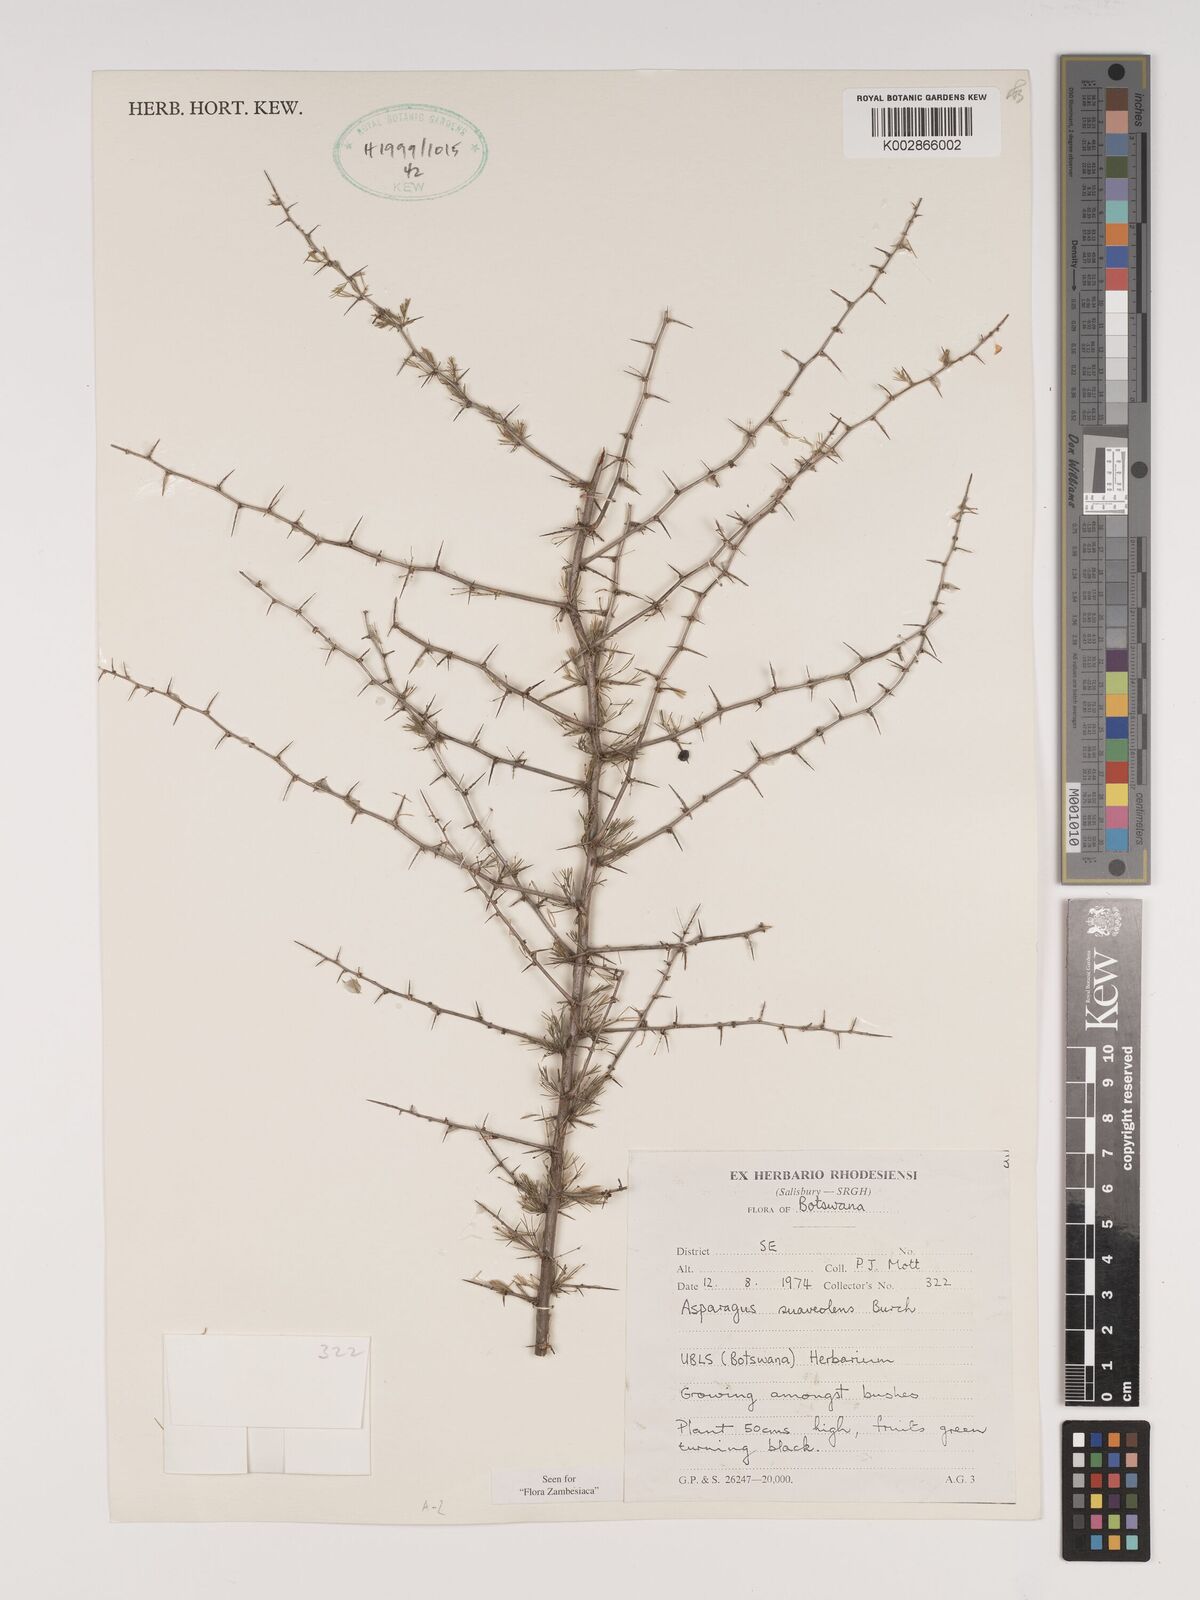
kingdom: Plantae
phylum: Tracheophyta
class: Liliopsida
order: Asparagales
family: Asparagaceae
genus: Asparagus
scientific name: Asparagus suaveolens
